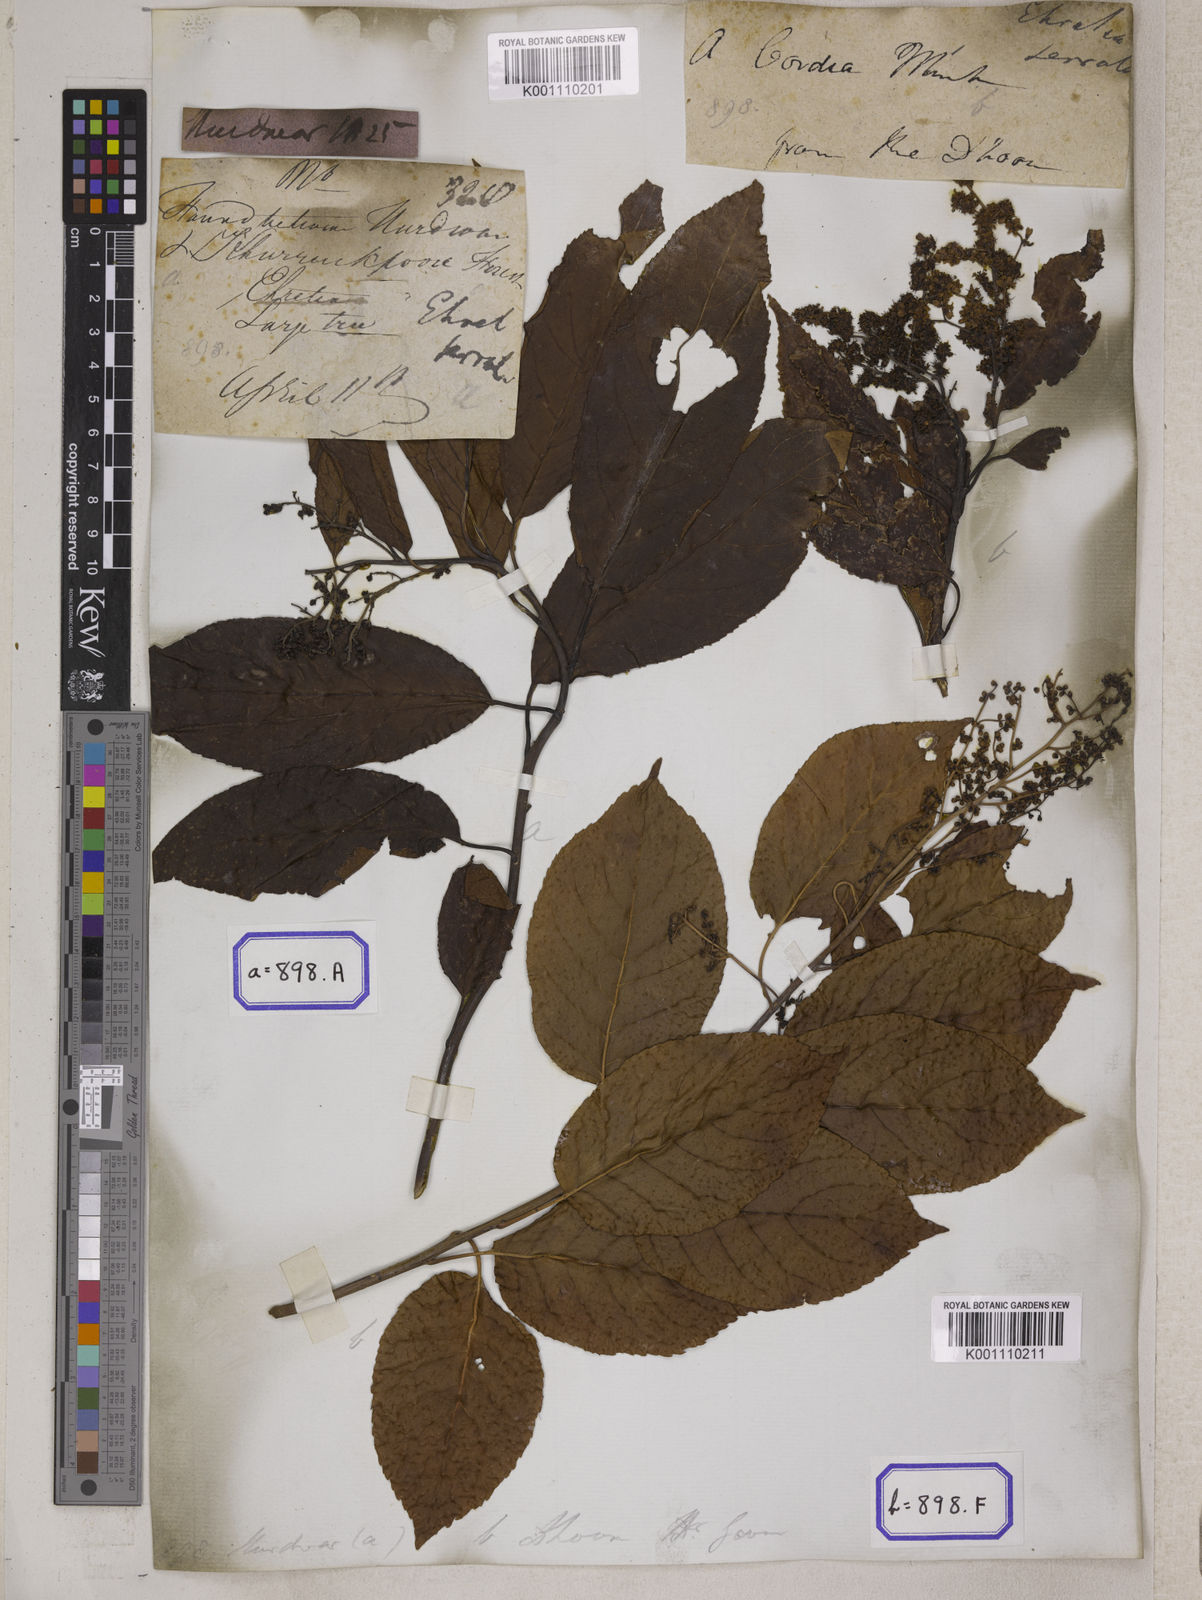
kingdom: Plantae
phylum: Tracheophyta
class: Magnoliopsida
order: Boraginales
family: Ehretiaceae
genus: Ehretia
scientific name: Ehretia acuminata
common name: Kodo wood
